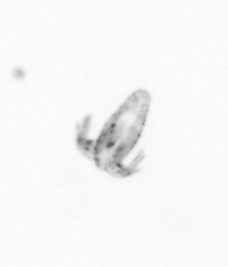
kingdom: Animalia
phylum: Arthropoda
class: Copepoda
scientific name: Copepoda
